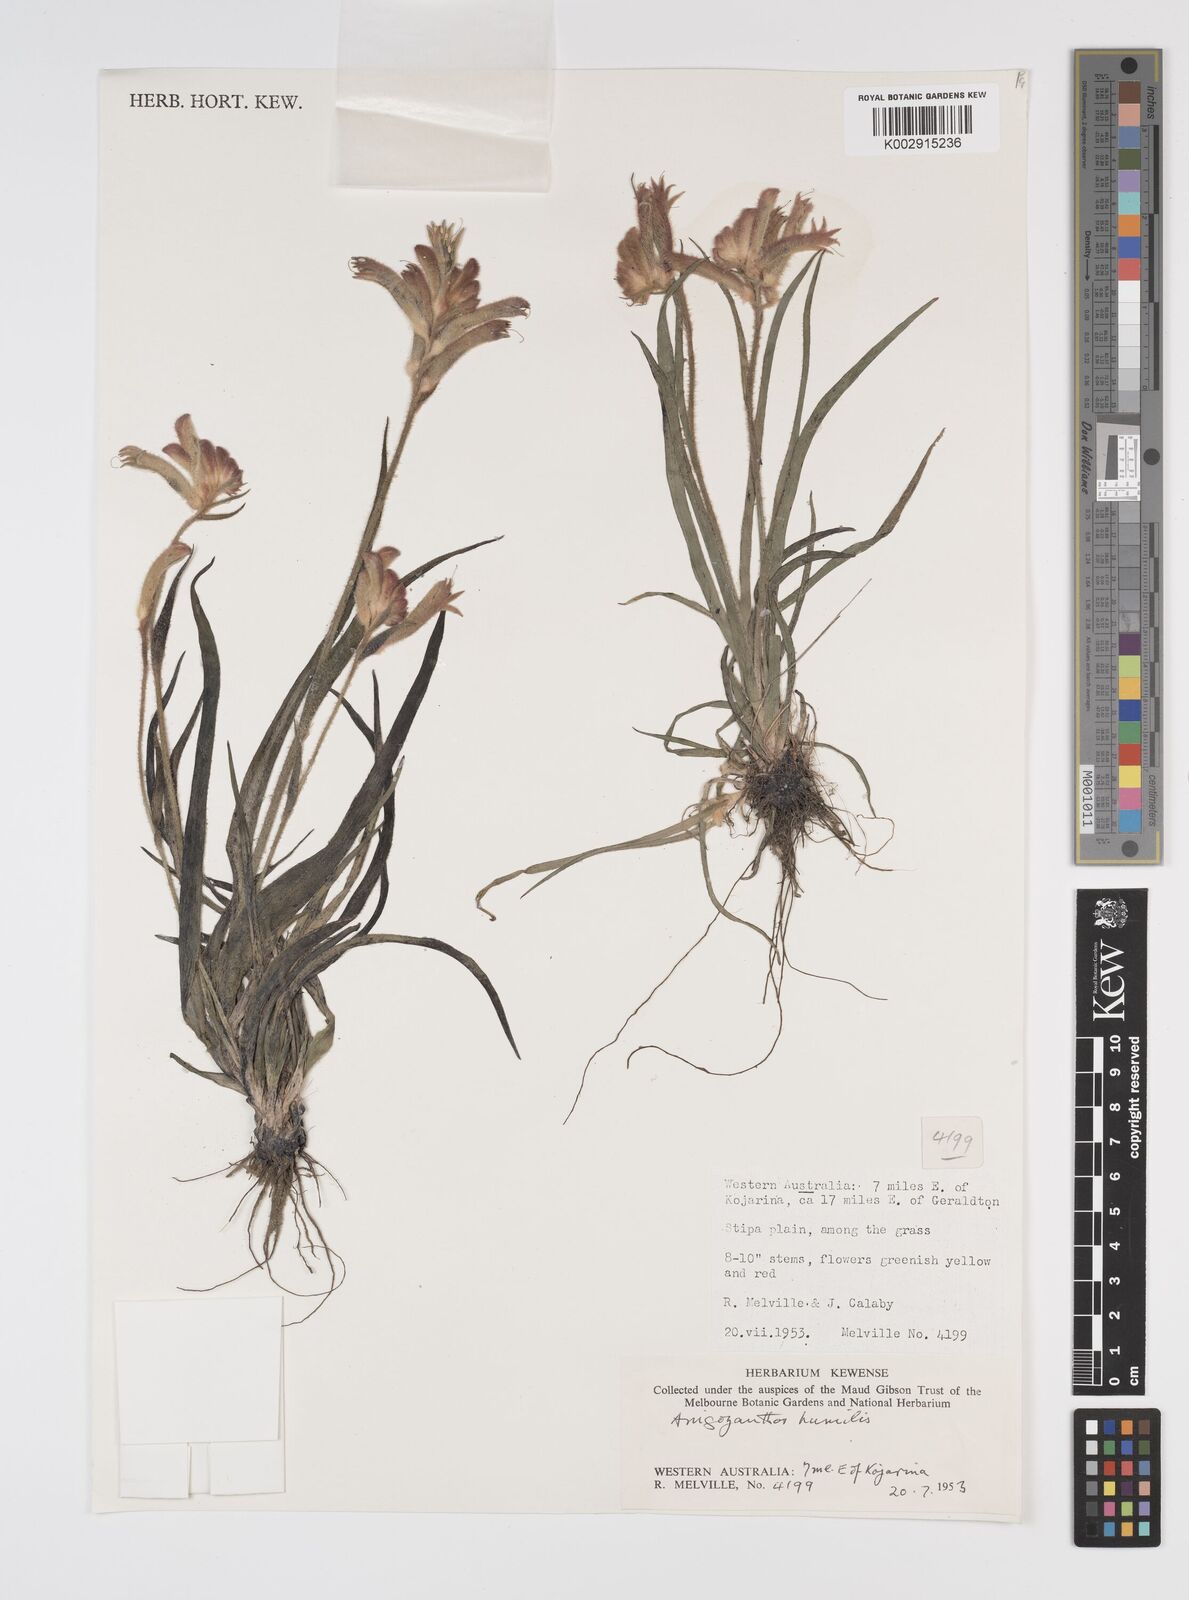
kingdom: Plantae
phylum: Tracheophyta
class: Liliopsida
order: Commelinales
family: Haemodoraceae
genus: Anigozanthos
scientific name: Anigozanthos humilis
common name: Cat's-paw
